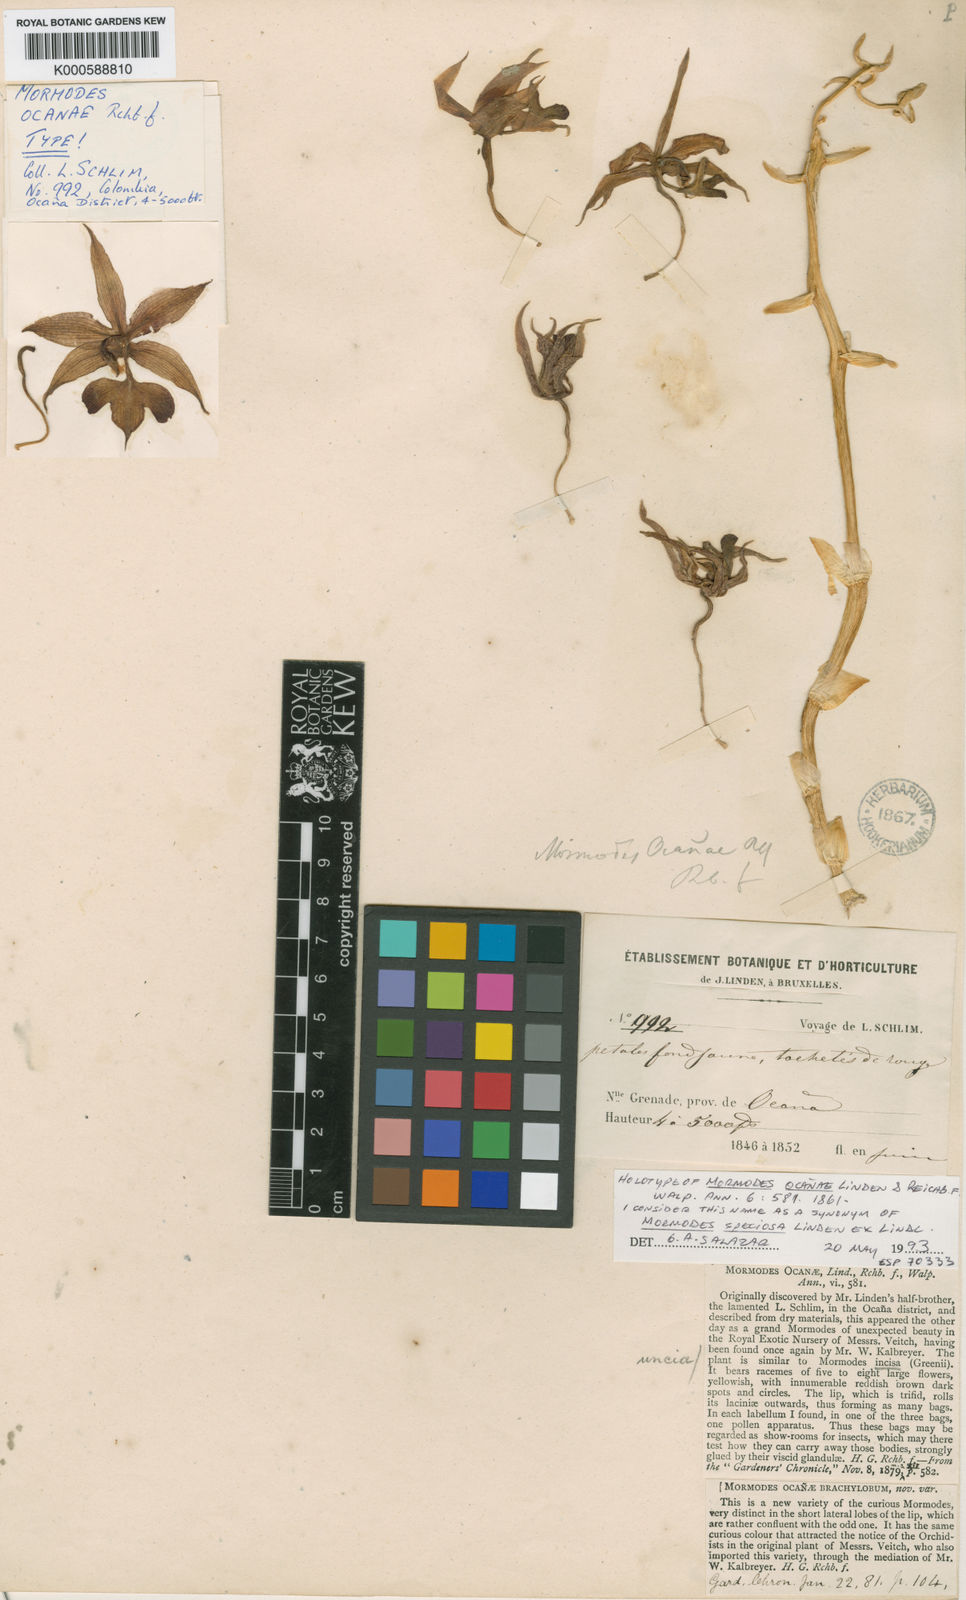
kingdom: Plantae
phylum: Tracheophyta
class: Liliopsida
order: Asparagales
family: Orchidaceae
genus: Mormodes
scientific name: Mormodes speciosa
